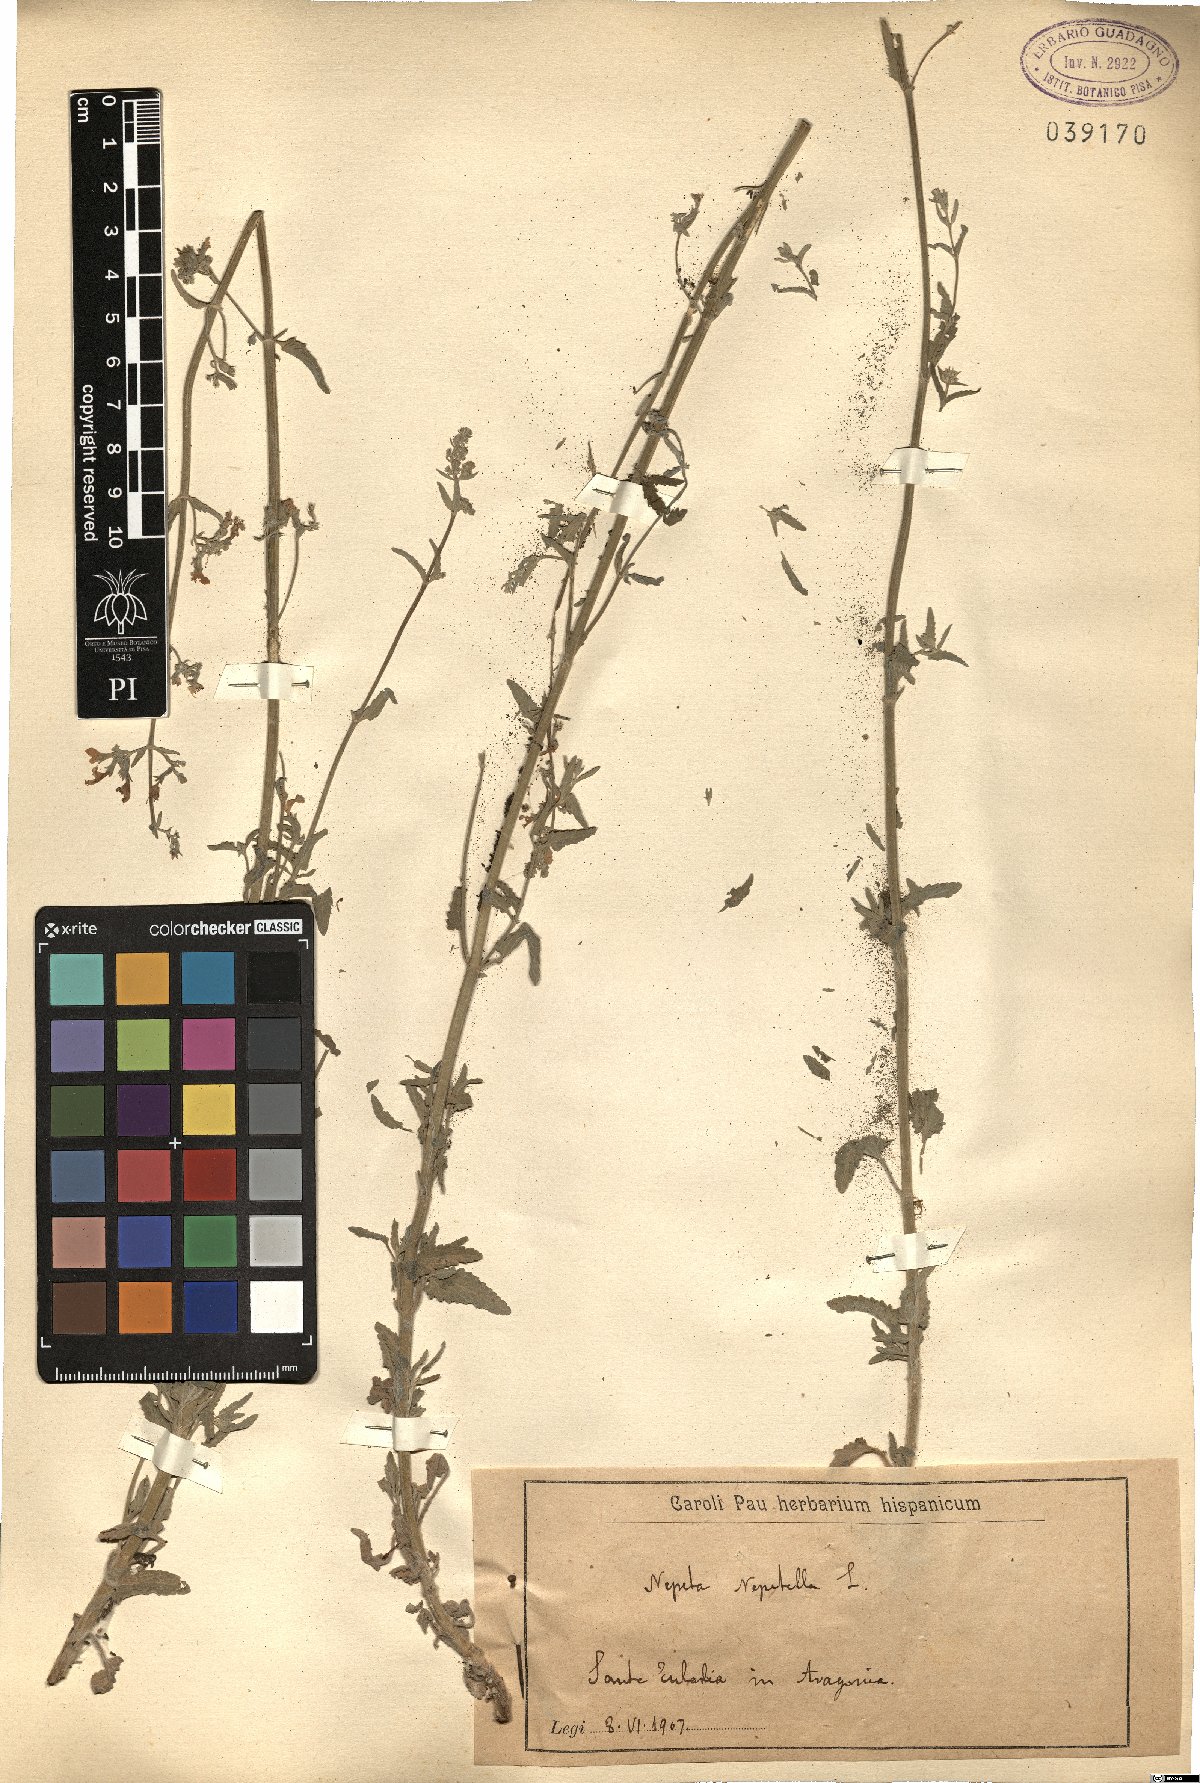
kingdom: Plantae
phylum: Tracheophyta
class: Magnoliopsida
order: Lamiales
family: Lamiaceae
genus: Nepeta
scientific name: Nepeta nepetella
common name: Lesser catmint
